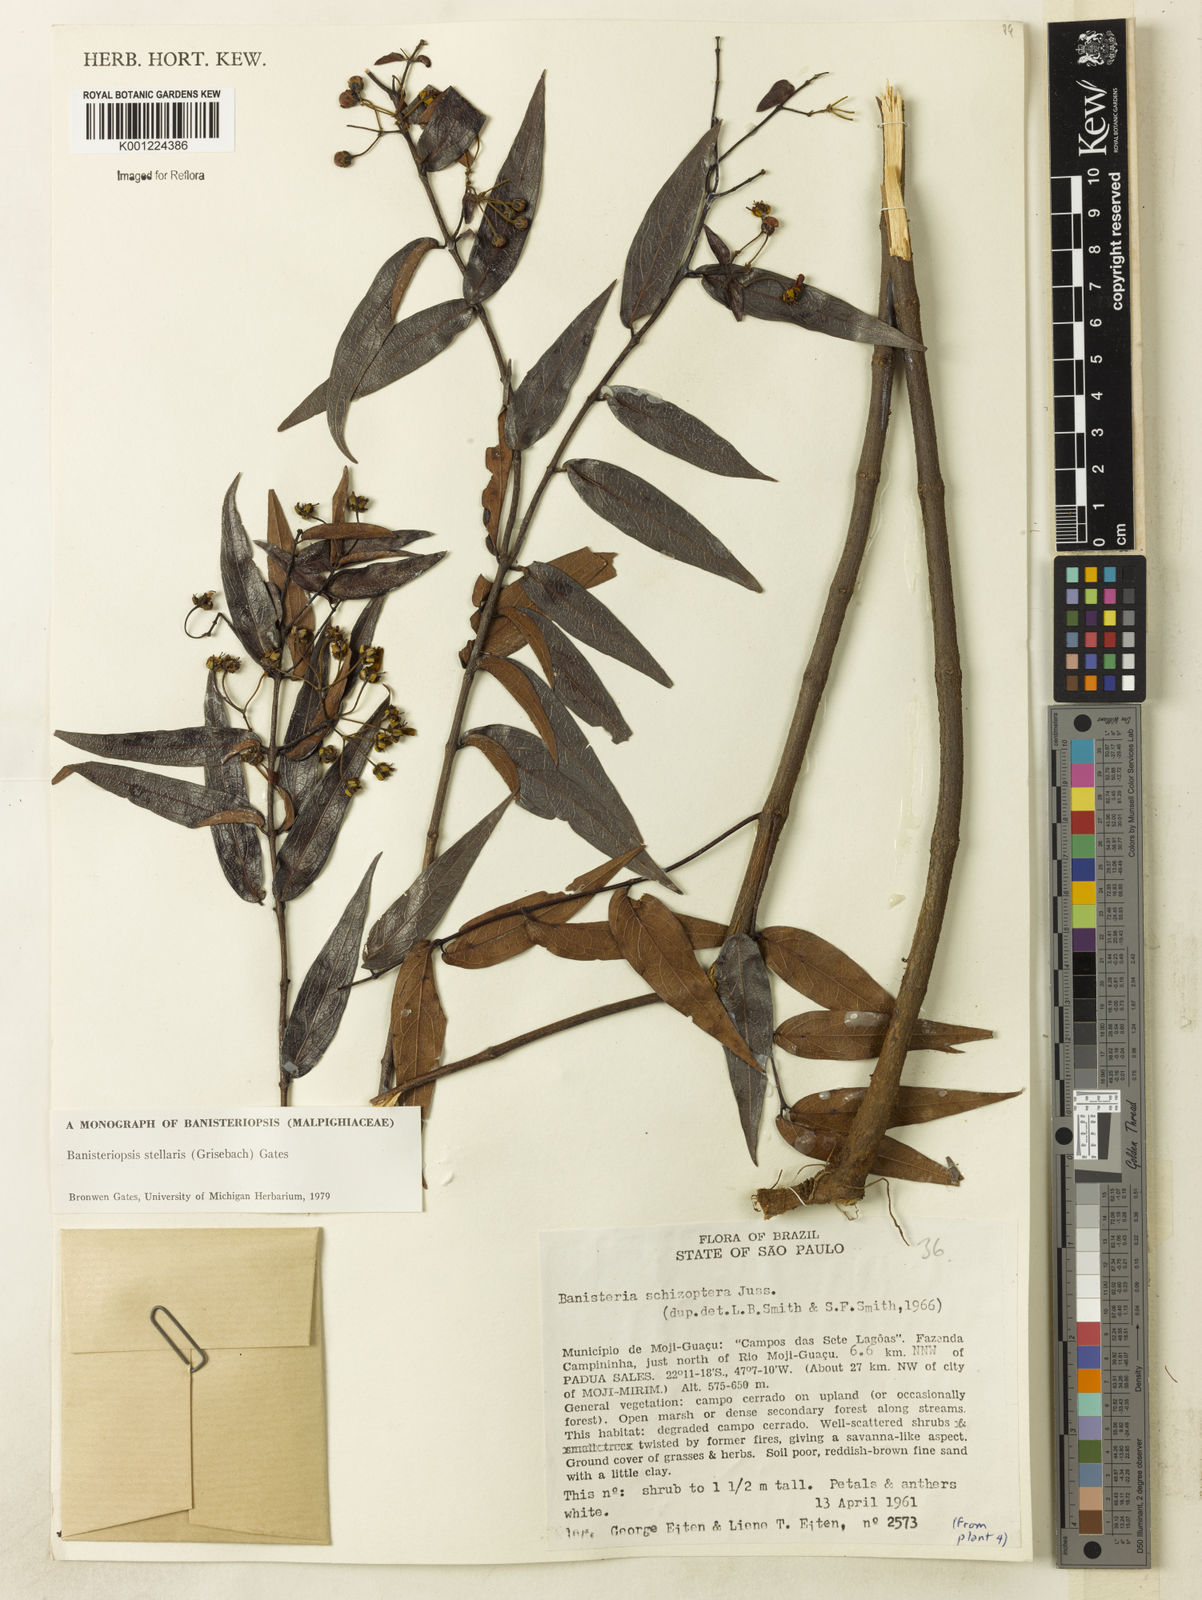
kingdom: Plantae
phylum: Tracheophyta
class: Magnoliopsida
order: Malpighiales
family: Malpighiaceae
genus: Banisteriopsis
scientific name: Banisteriopsis stellaris
